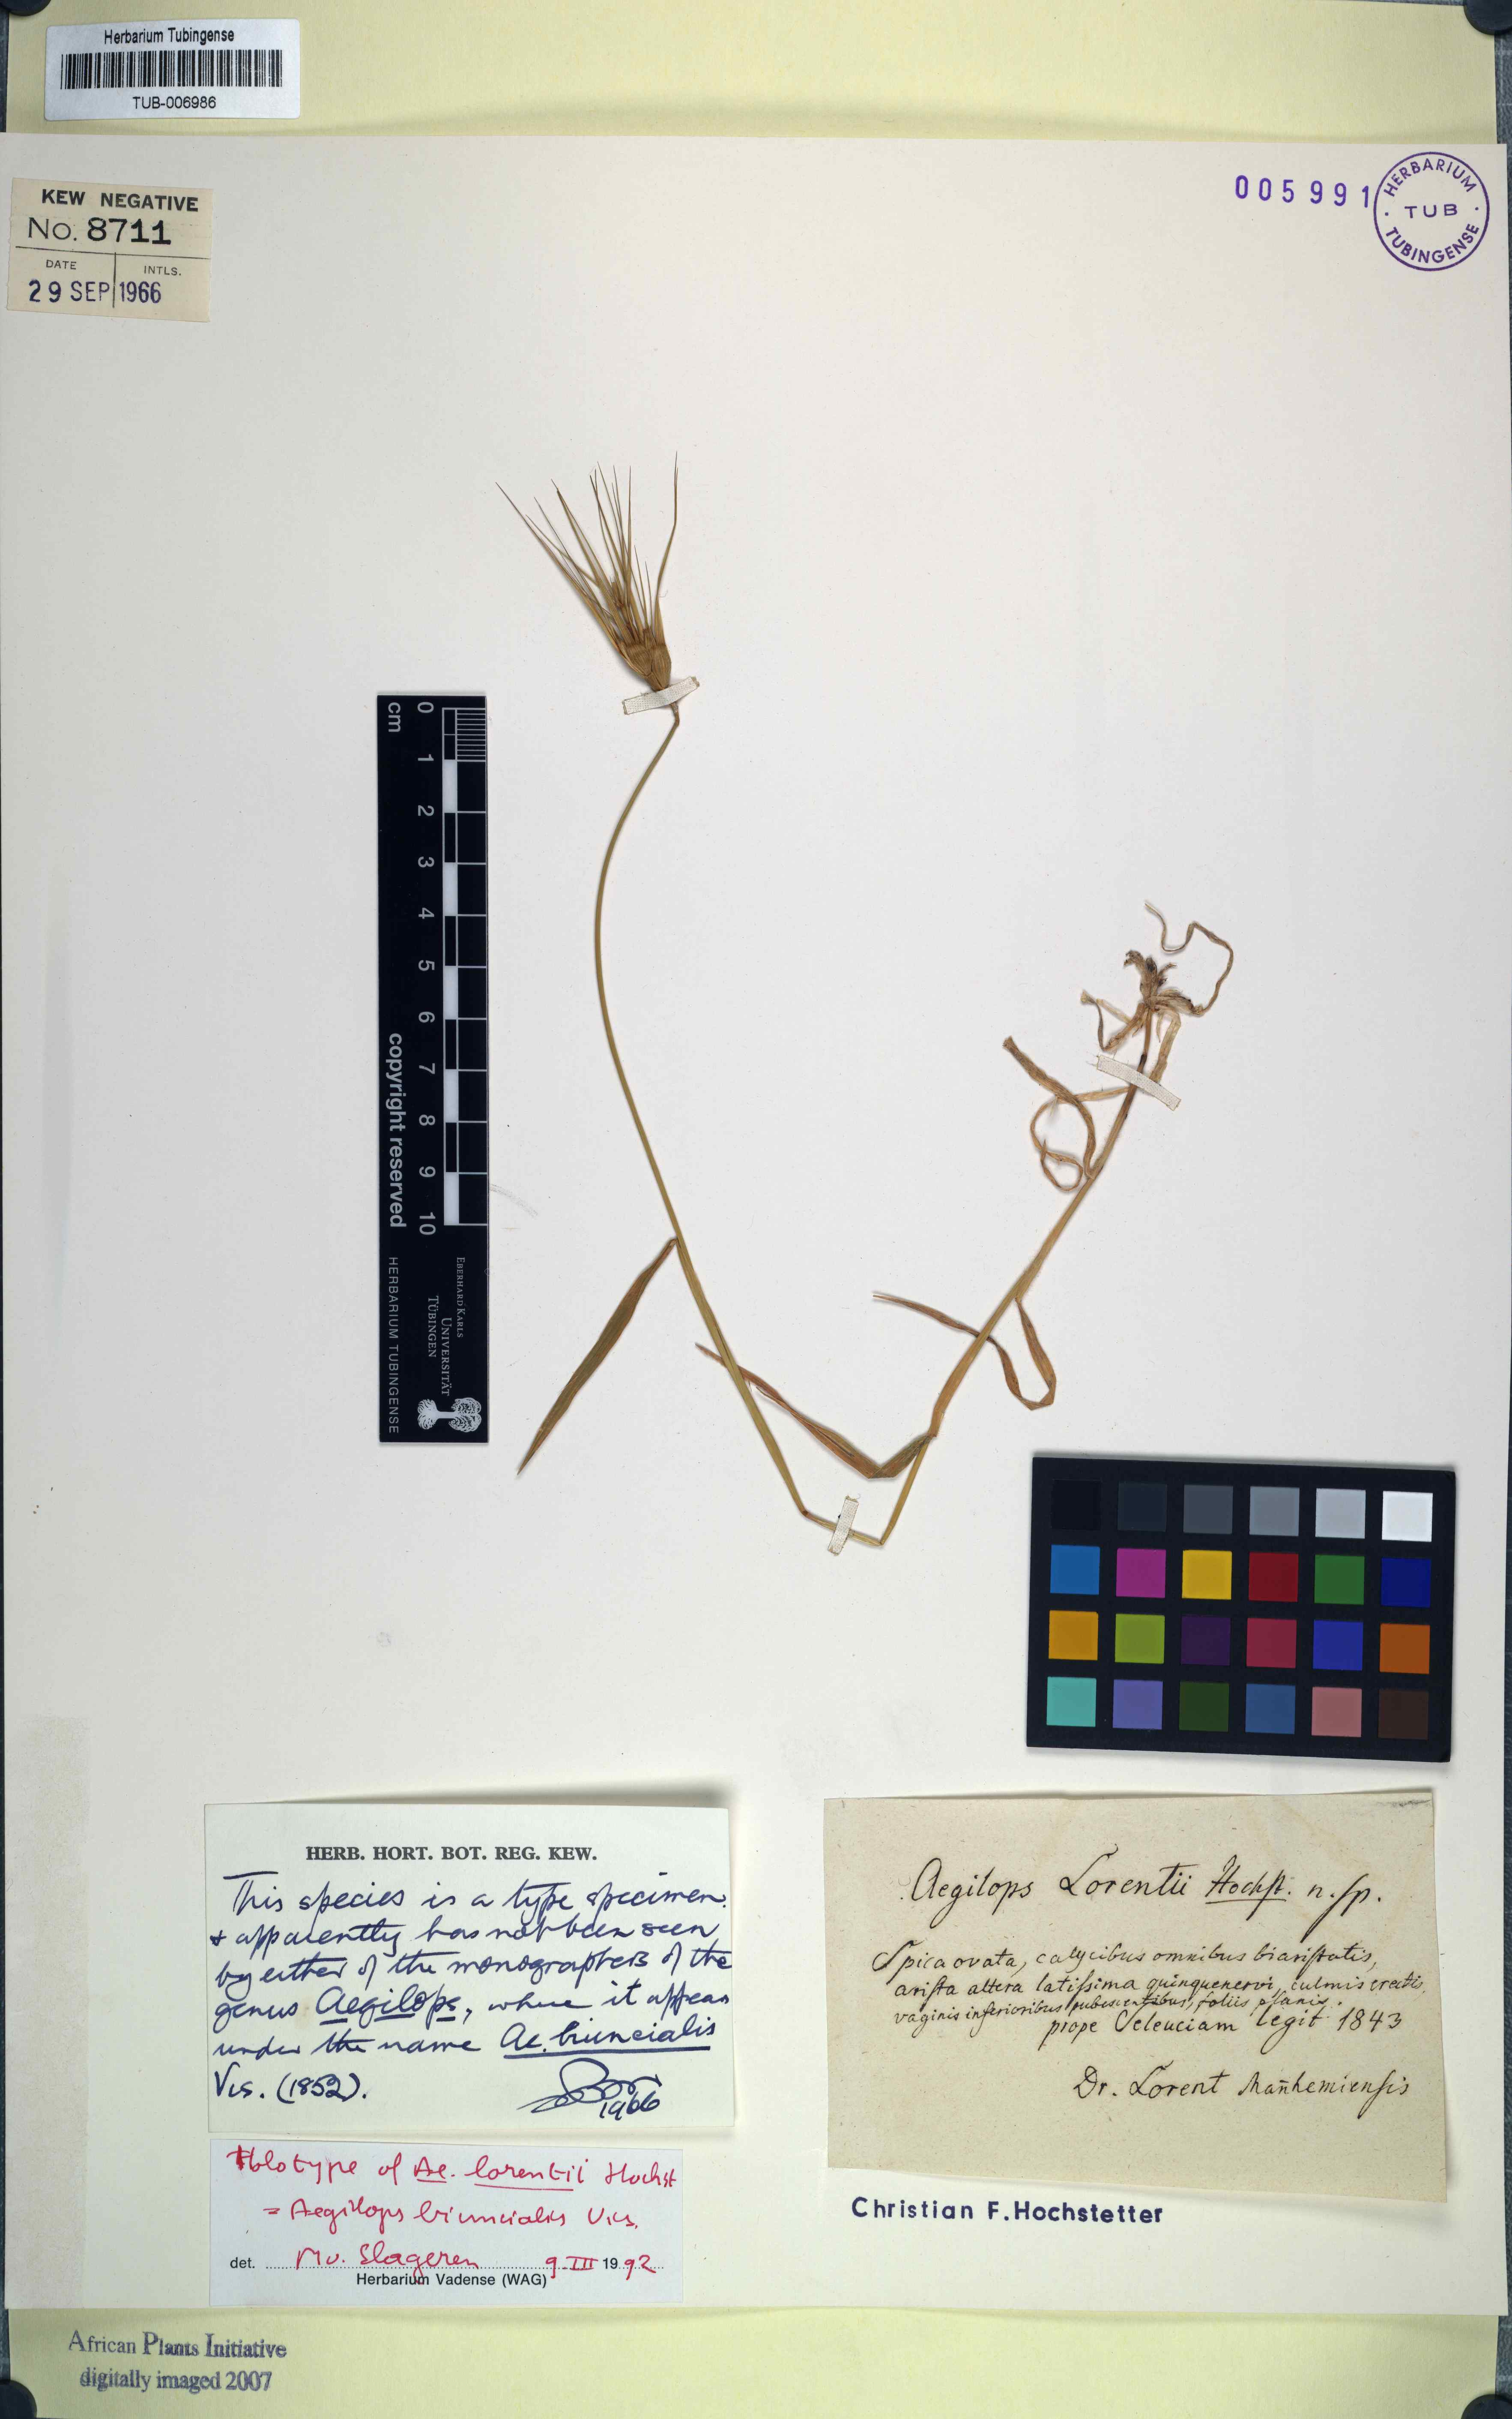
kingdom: Plantae
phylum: Tracheophyta
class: Liliopsida
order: Poales
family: Poaceae
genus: Aegilops
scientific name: Aegilops biuncialis
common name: Mediterranean aegilops
